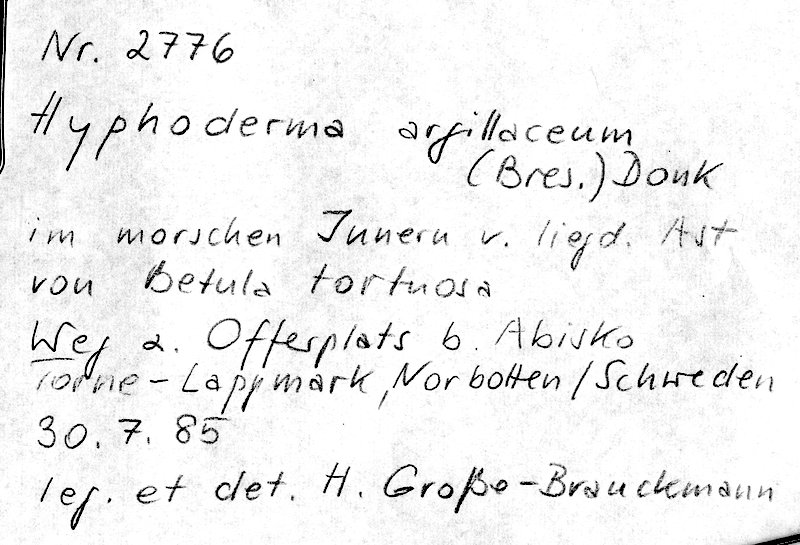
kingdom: Fungi
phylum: Basidiomycota
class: Agaricomycetes
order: Hymenochaetales
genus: Kurtia
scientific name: Kurtia argillacea
